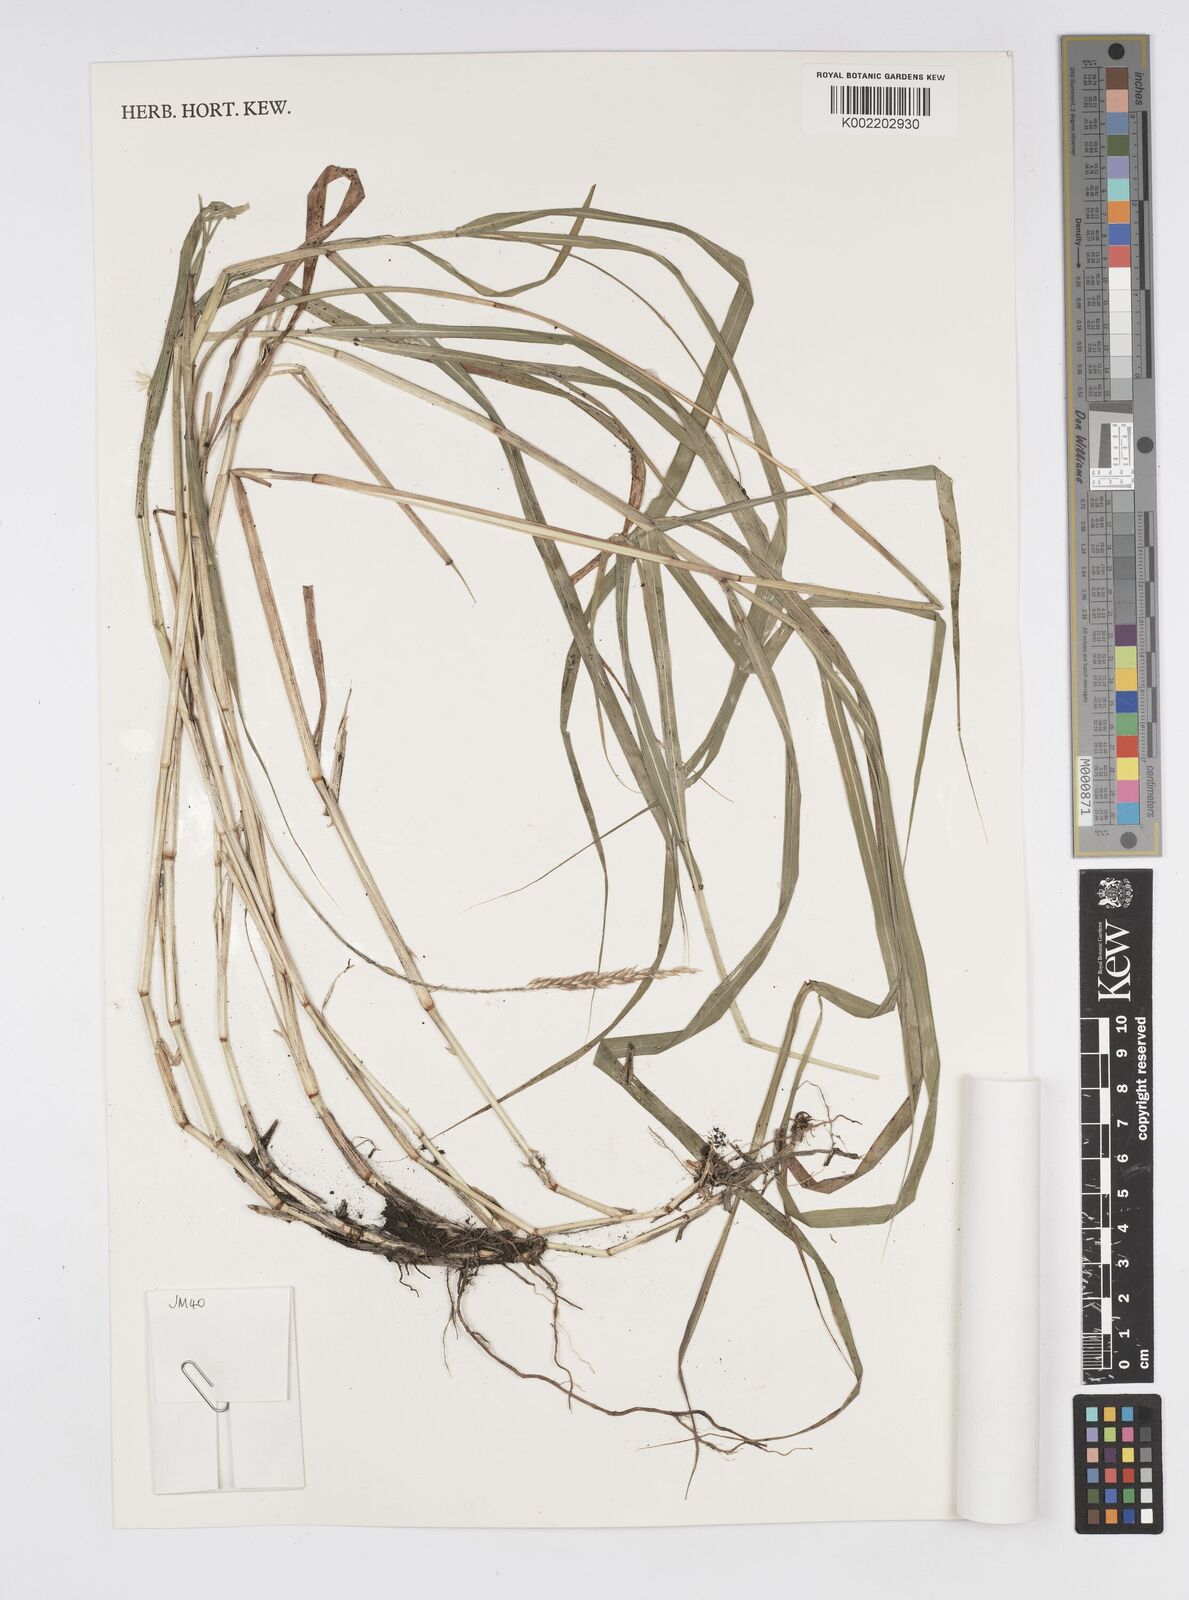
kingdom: Plantae
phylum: Tracheophyta
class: Liliopsida
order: Poales
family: Poaceae
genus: Cenchrus
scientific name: Cenchrus monostigma
